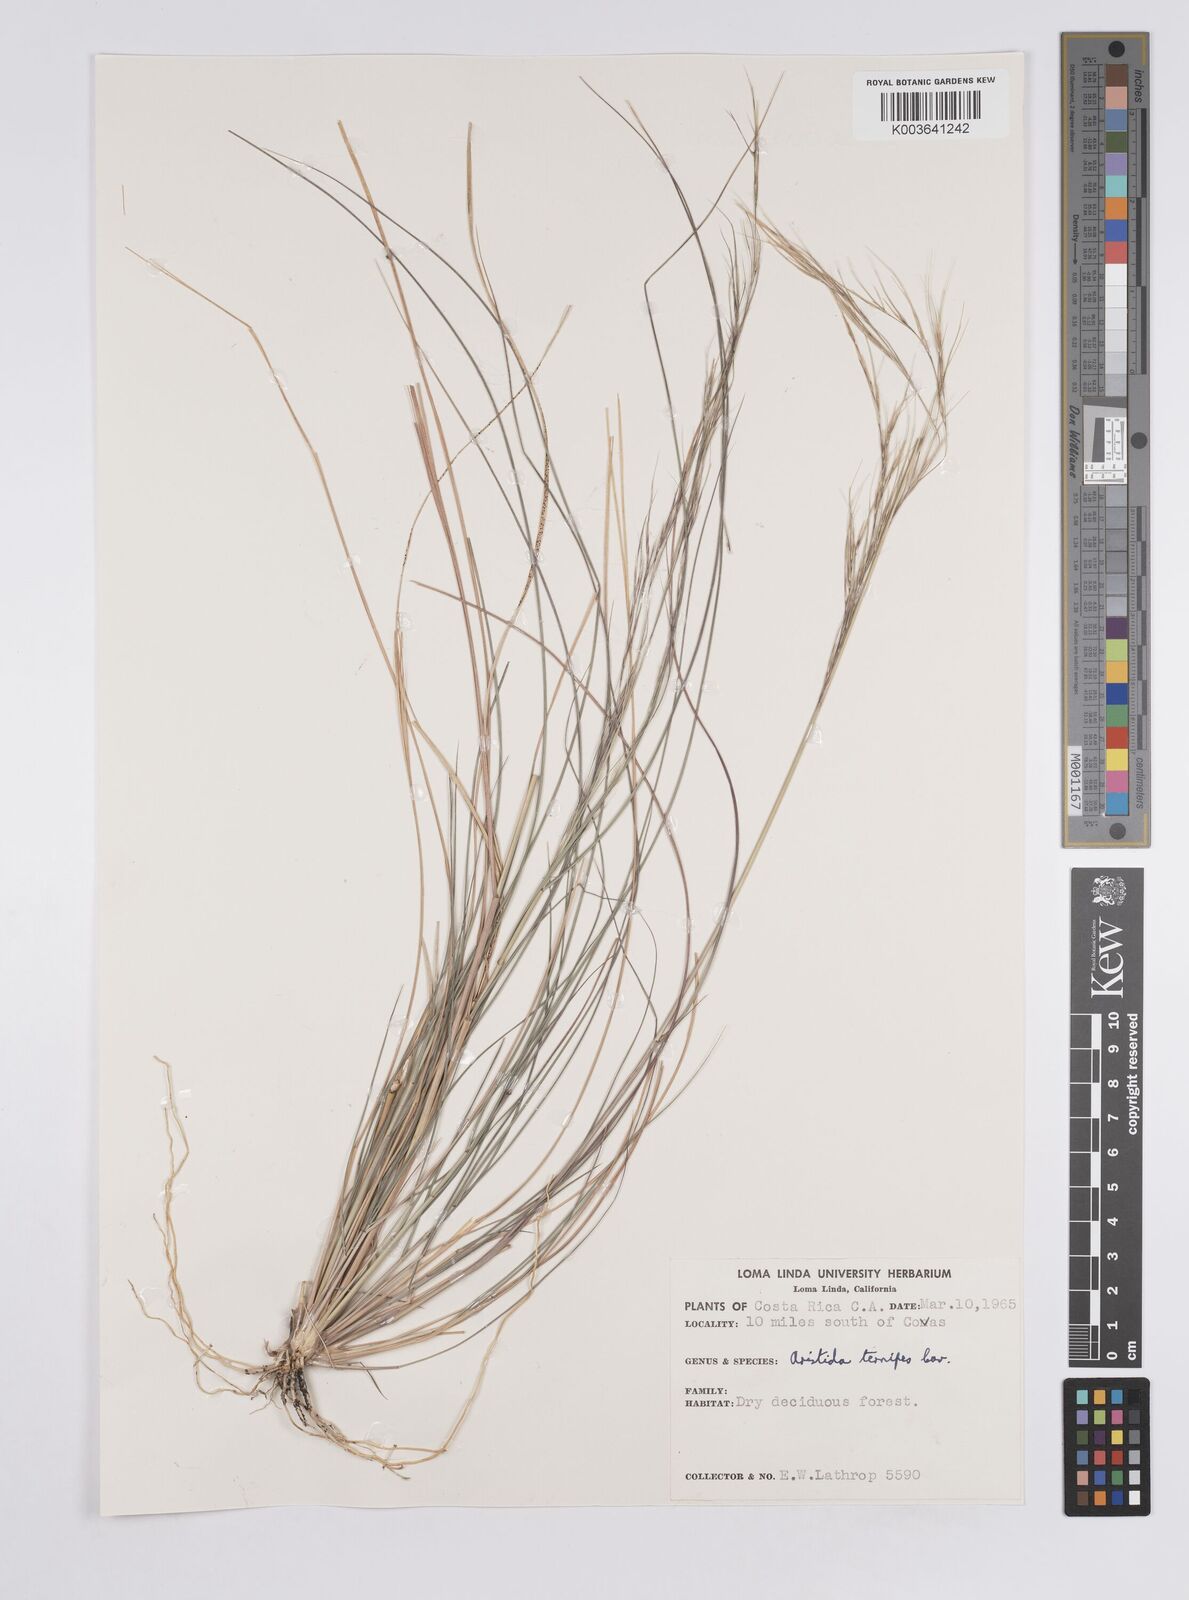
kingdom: Plantae
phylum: Tracheophyta
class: Liliopsida
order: Poales
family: Poaceae
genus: Aristida
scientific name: Aristida
